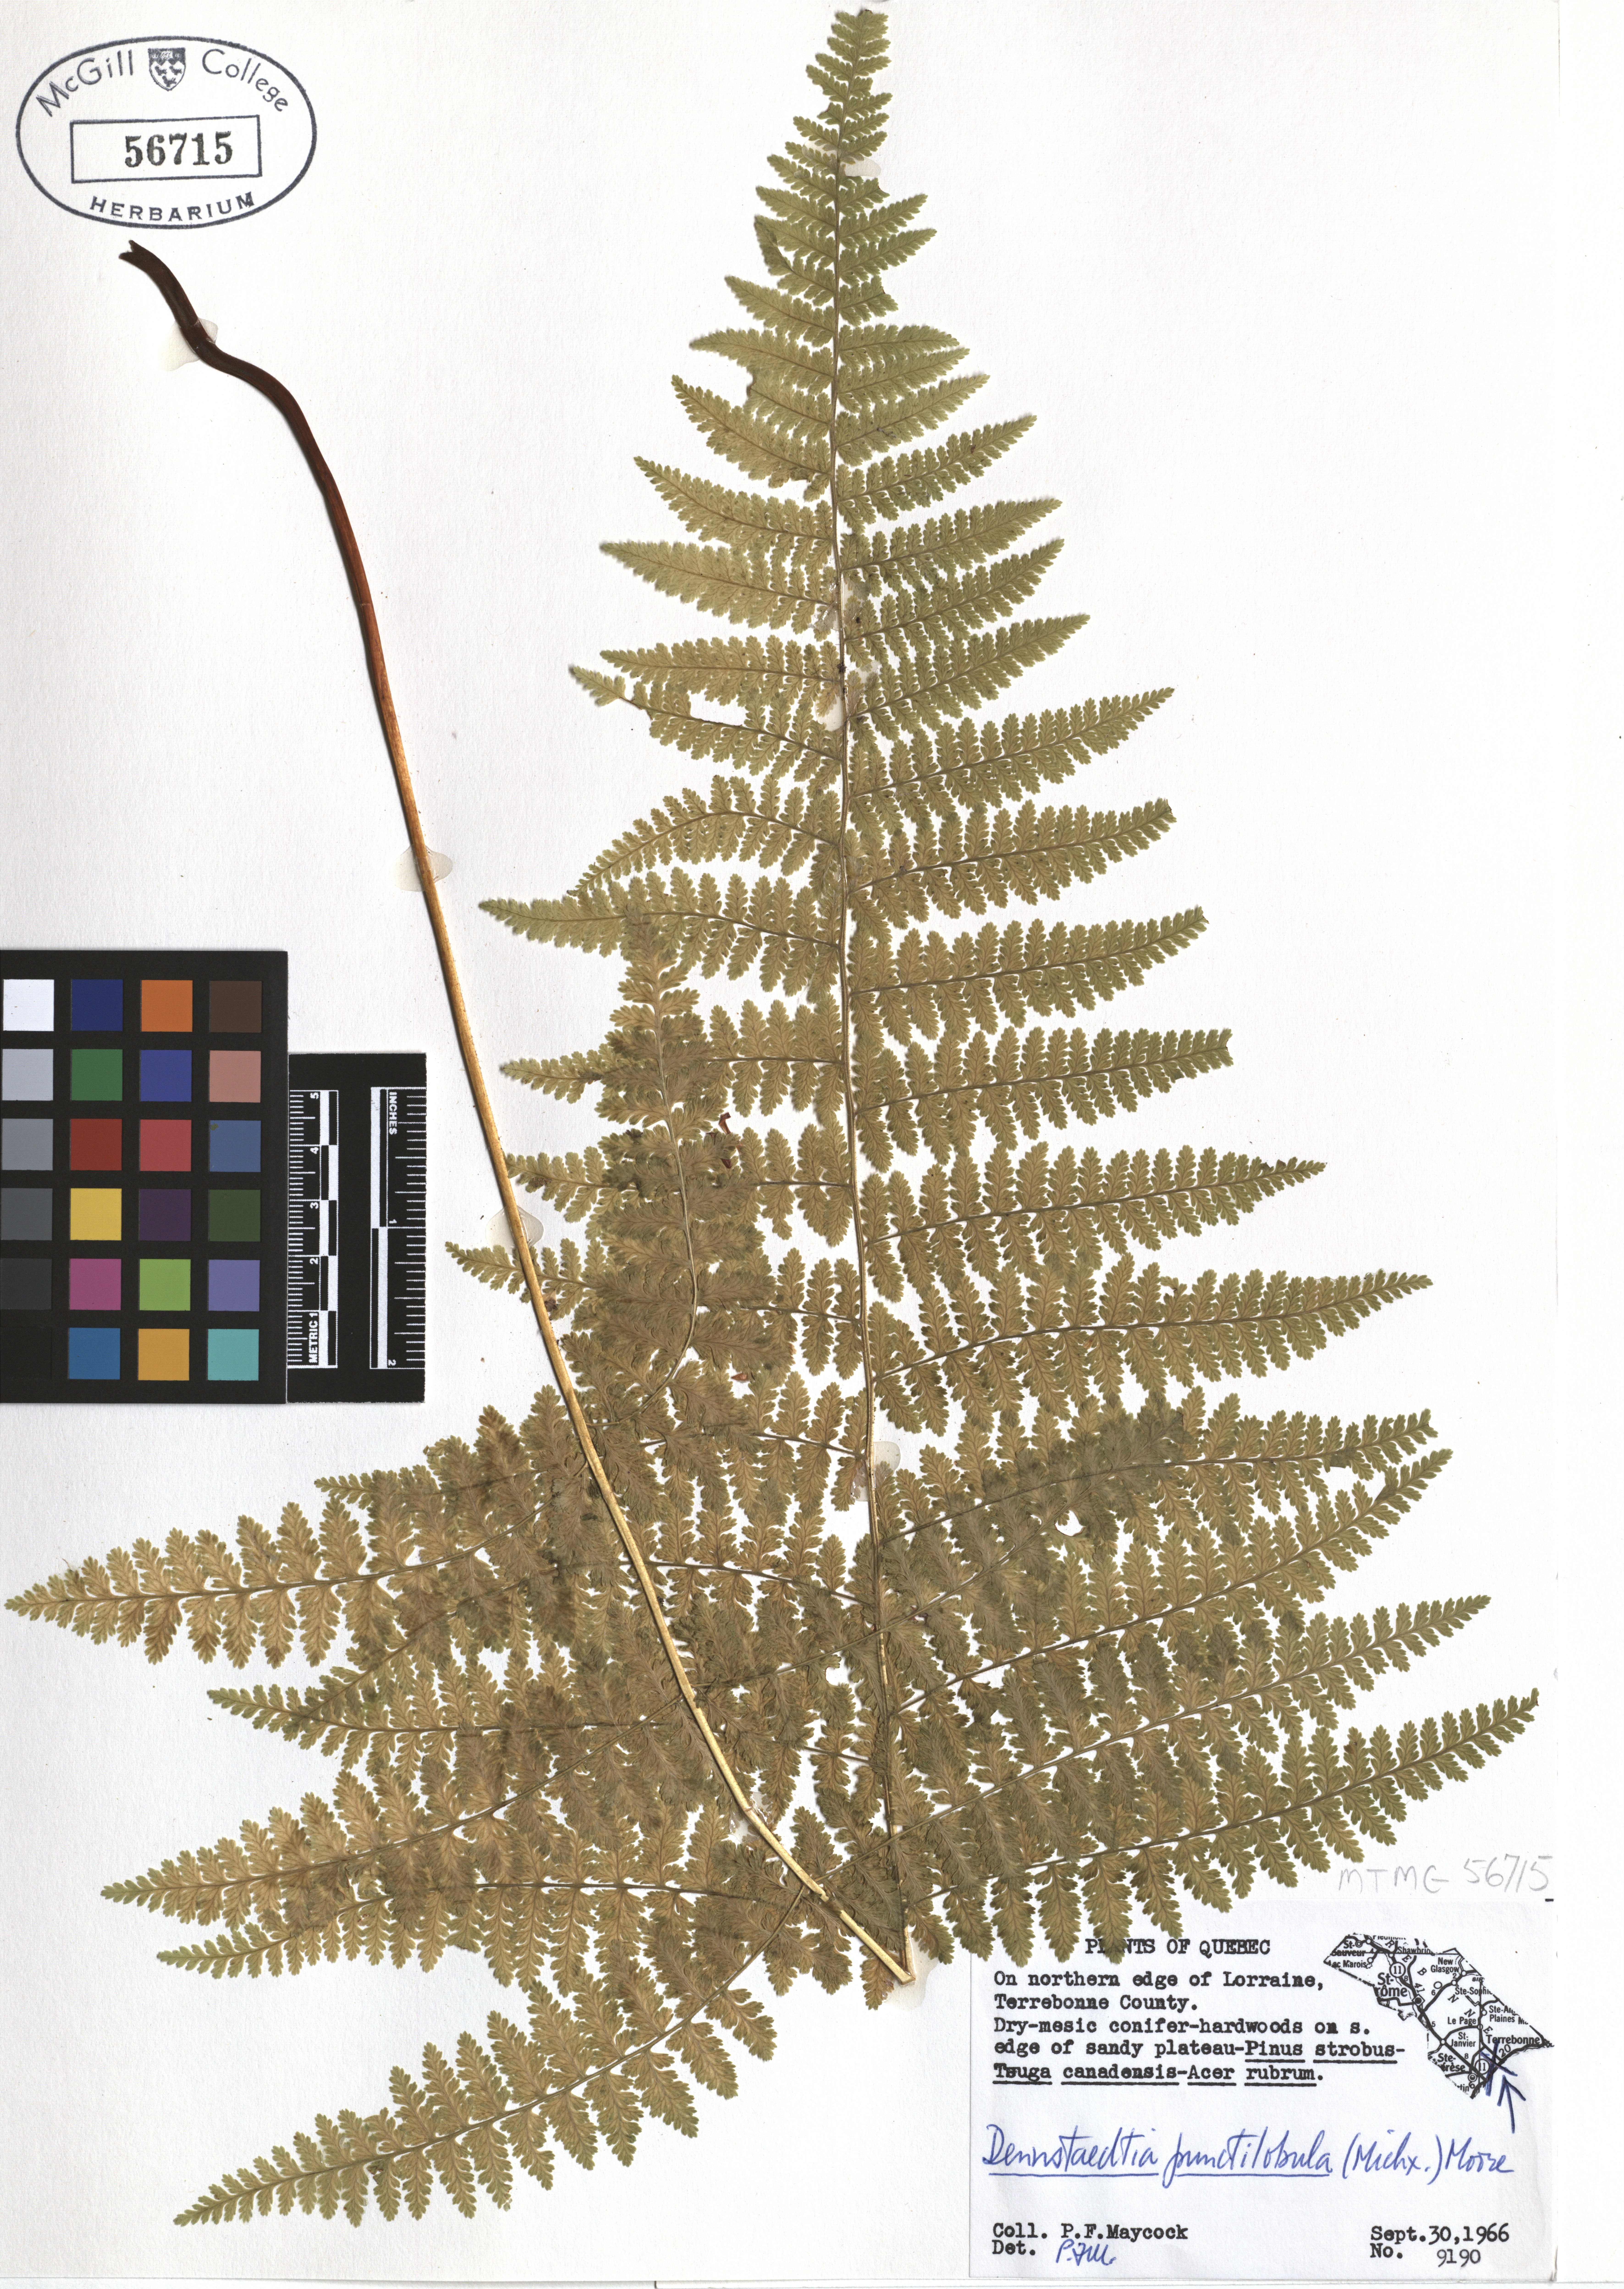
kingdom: Plantae
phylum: Tracheophyta
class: Polypodiopsida
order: Polypodiales
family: Dennstaedtiaceae
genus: Sitobolium
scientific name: Sitobolium punctilobum
